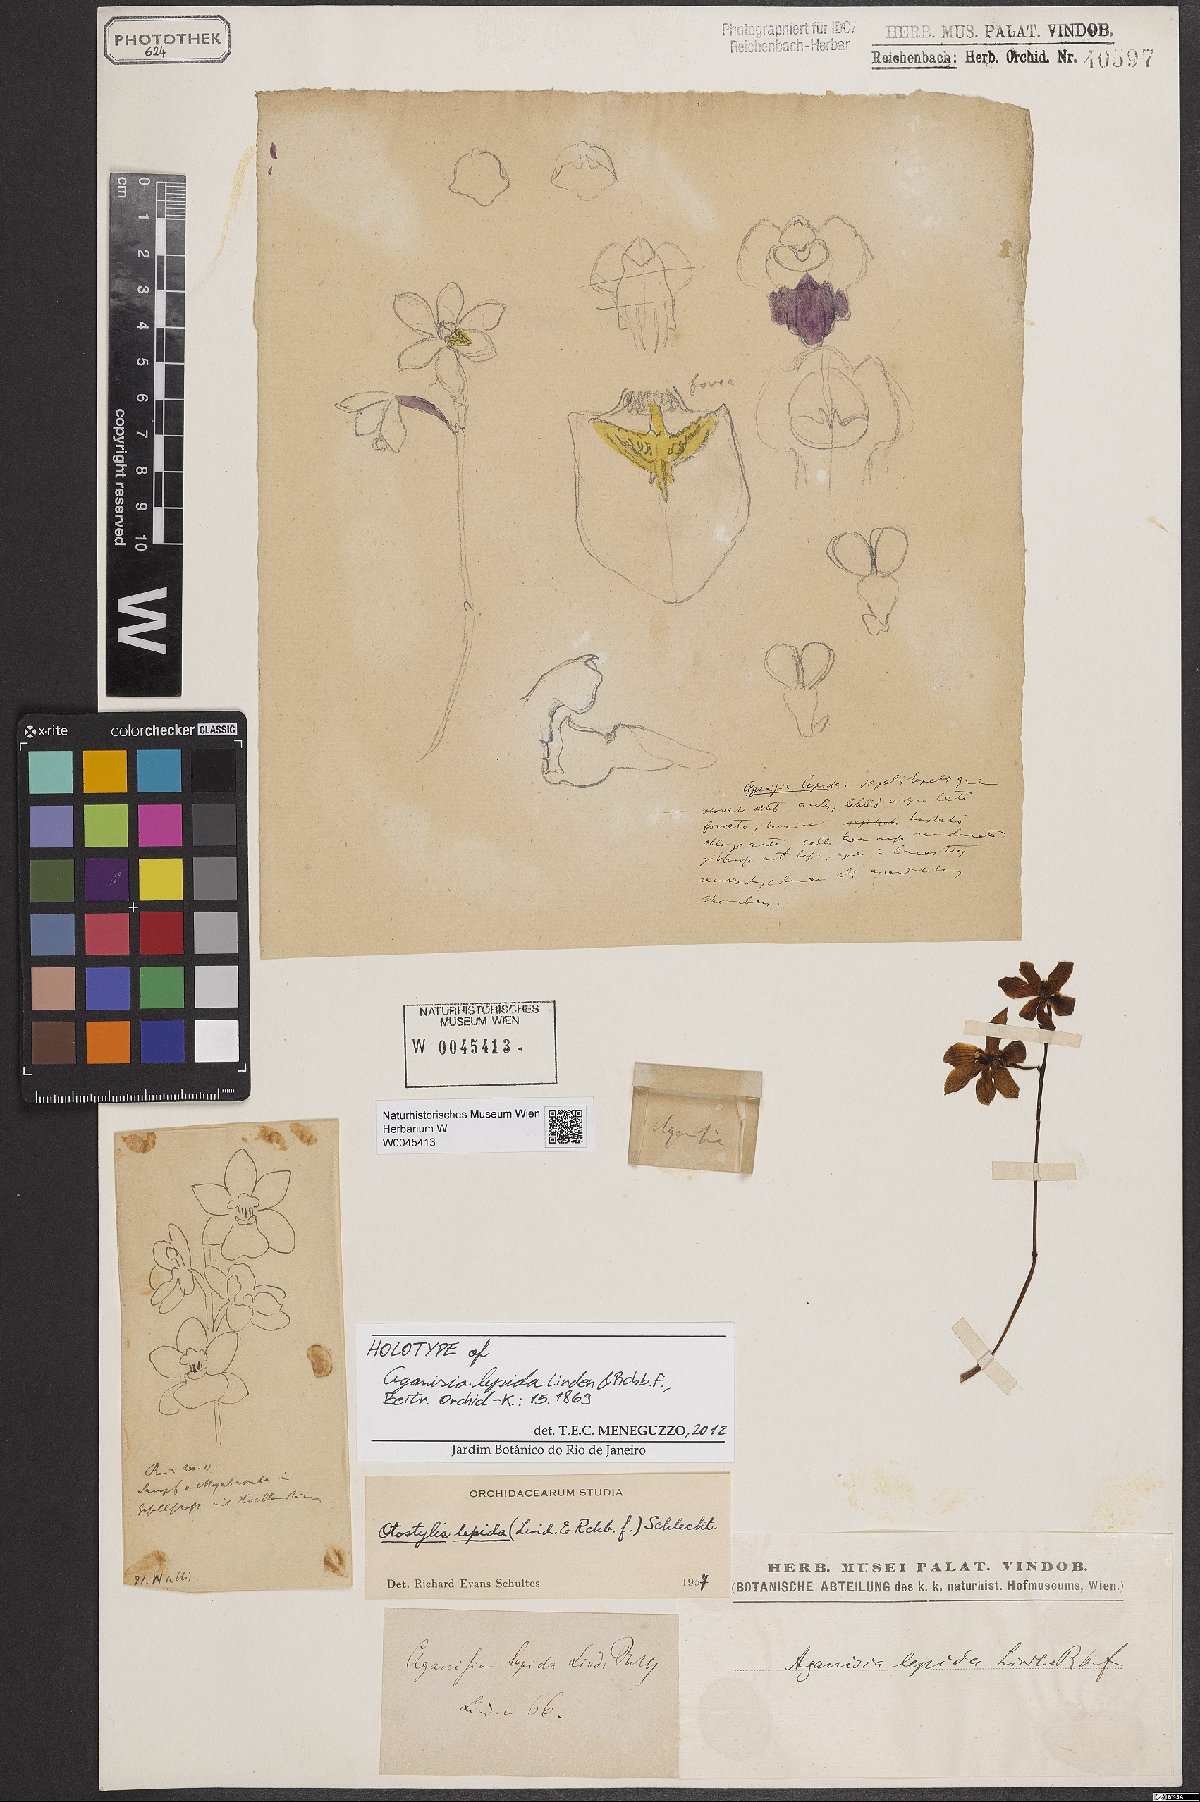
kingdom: Plantae
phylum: Tracheophyta
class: Liliopsida
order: Asparagales
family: Orchidaceae
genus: Otostylis
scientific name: Otostylis brachystalix
